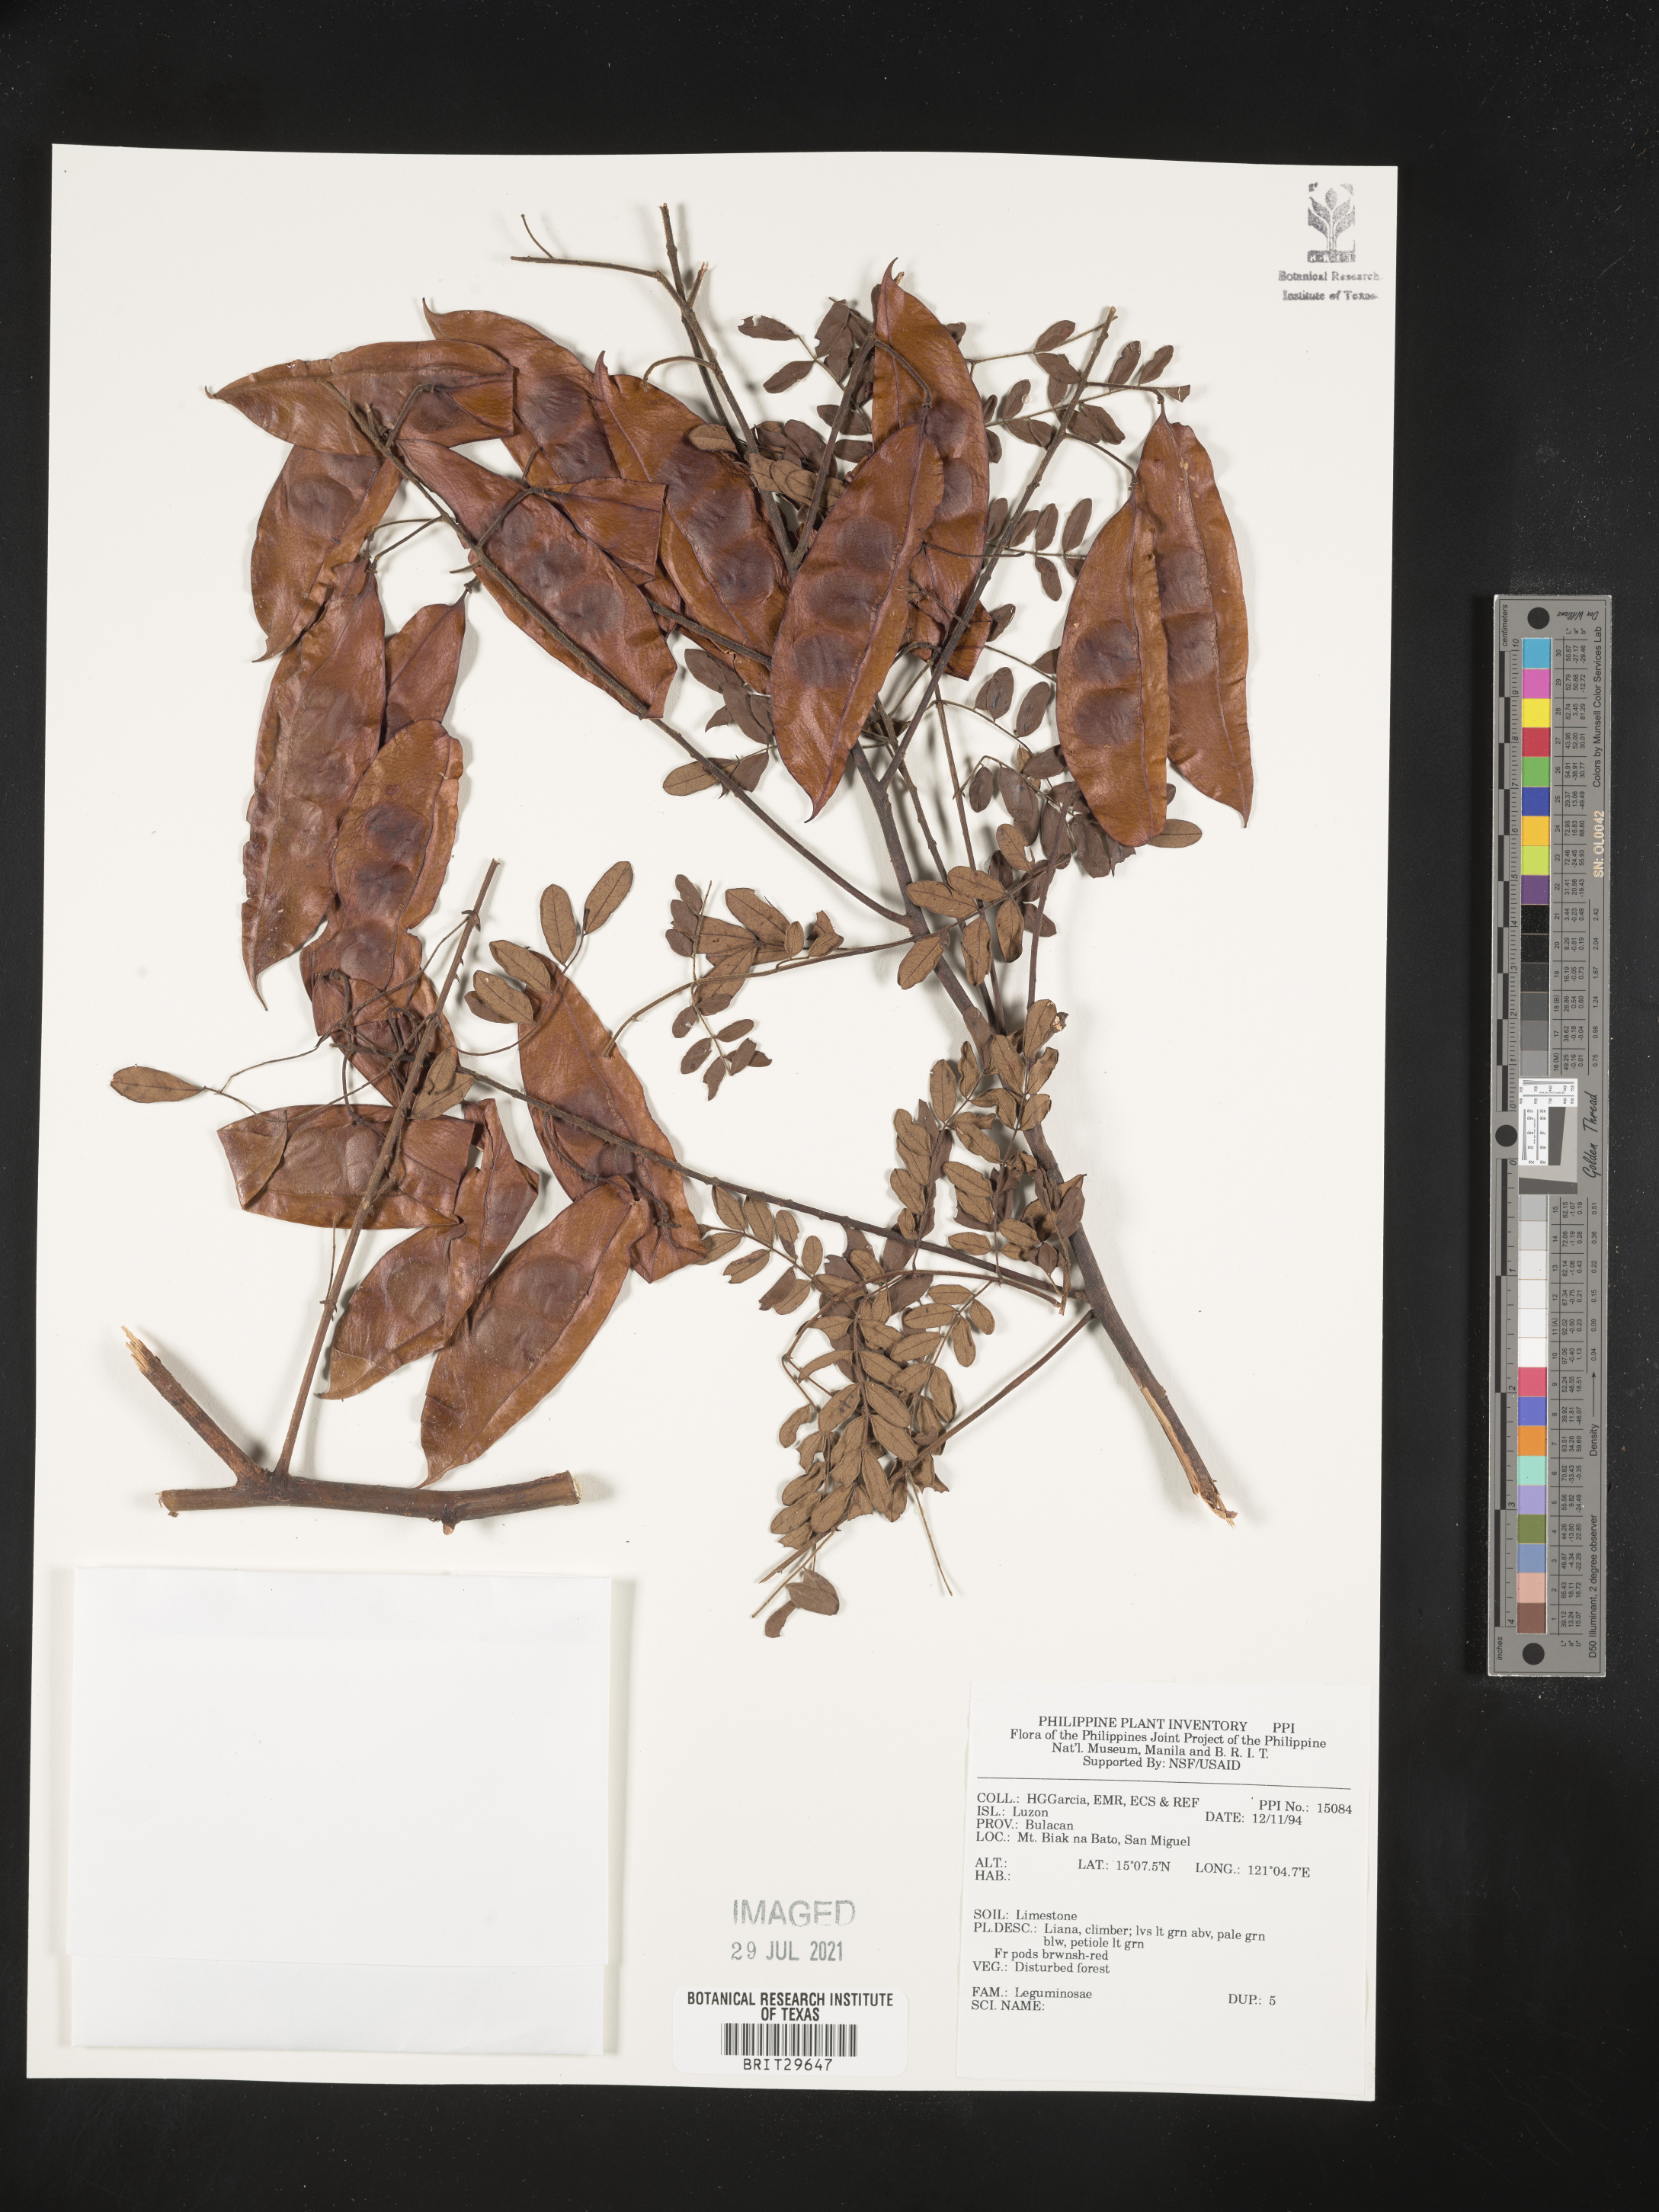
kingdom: Plantae
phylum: Tracheophyta
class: Magnoliopsida
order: Fabales
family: Fabaceae
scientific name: Fabaceae
